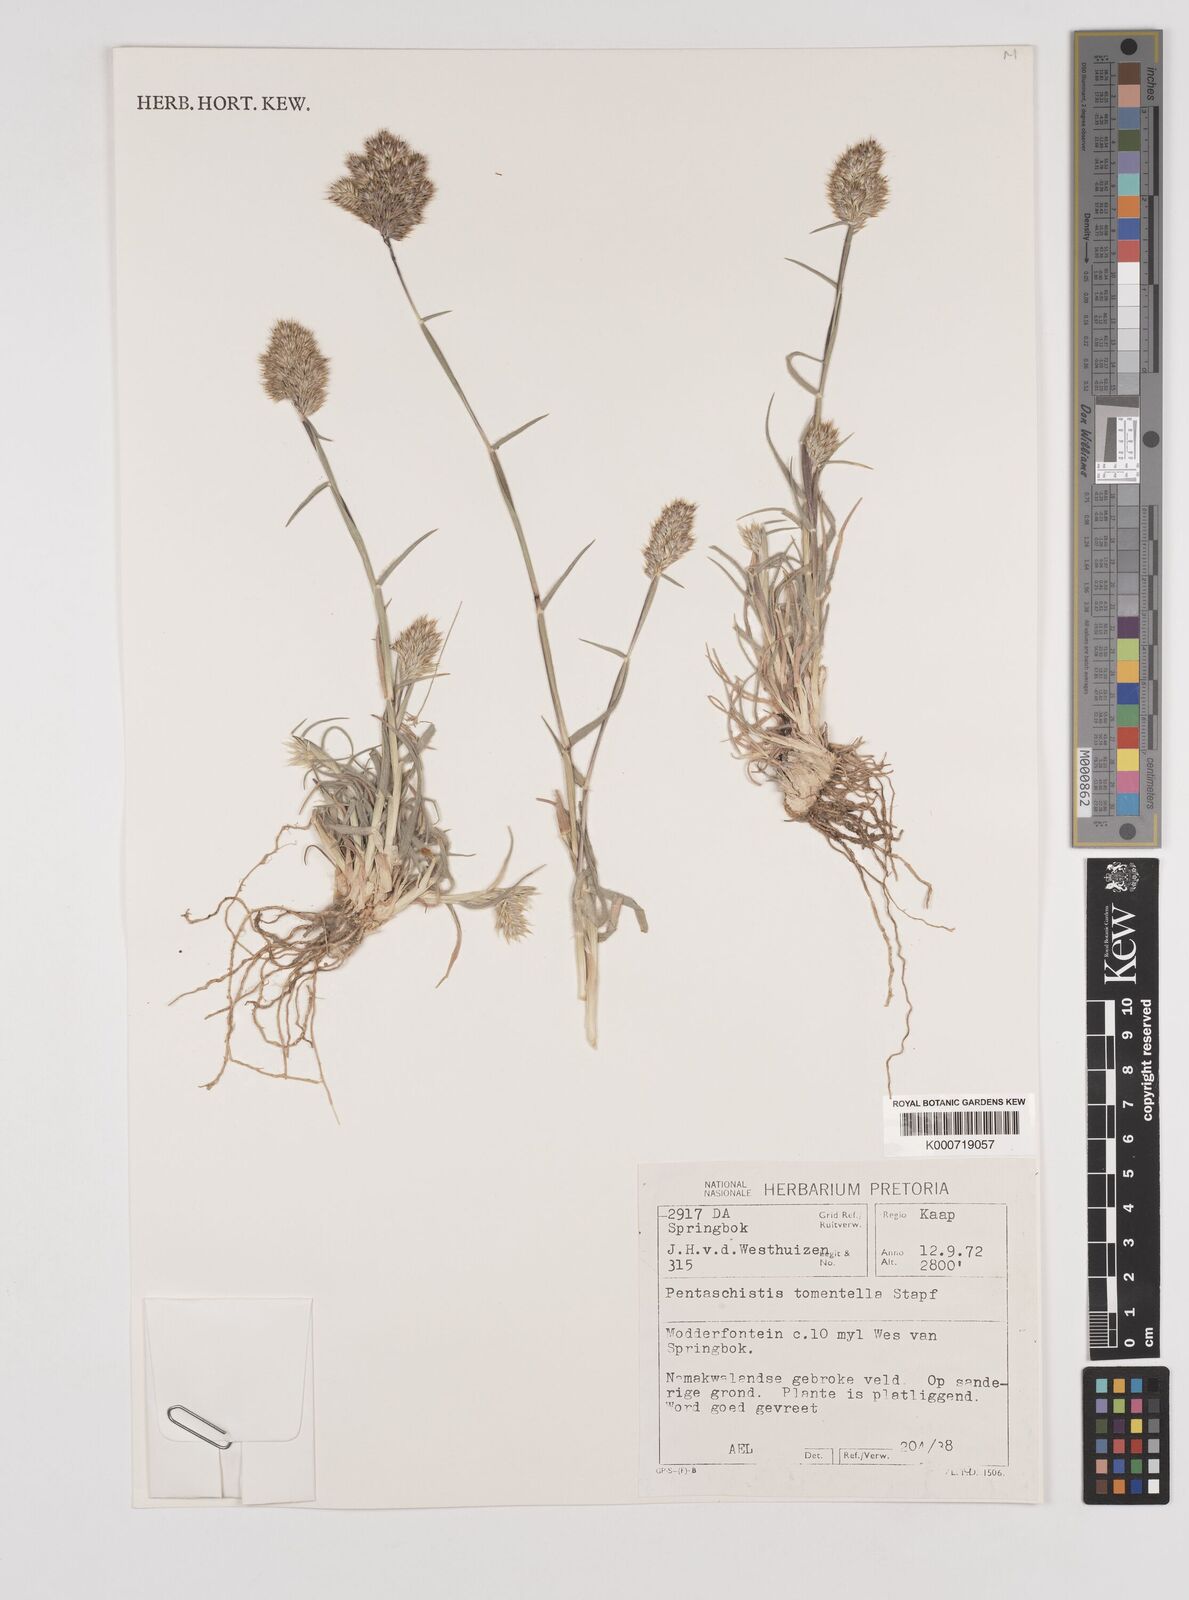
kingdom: Plantae
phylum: Tracheophyta
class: Liliopsida
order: Poales
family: Poaceae
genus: Pentameris
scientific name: Pentameris tomentella
